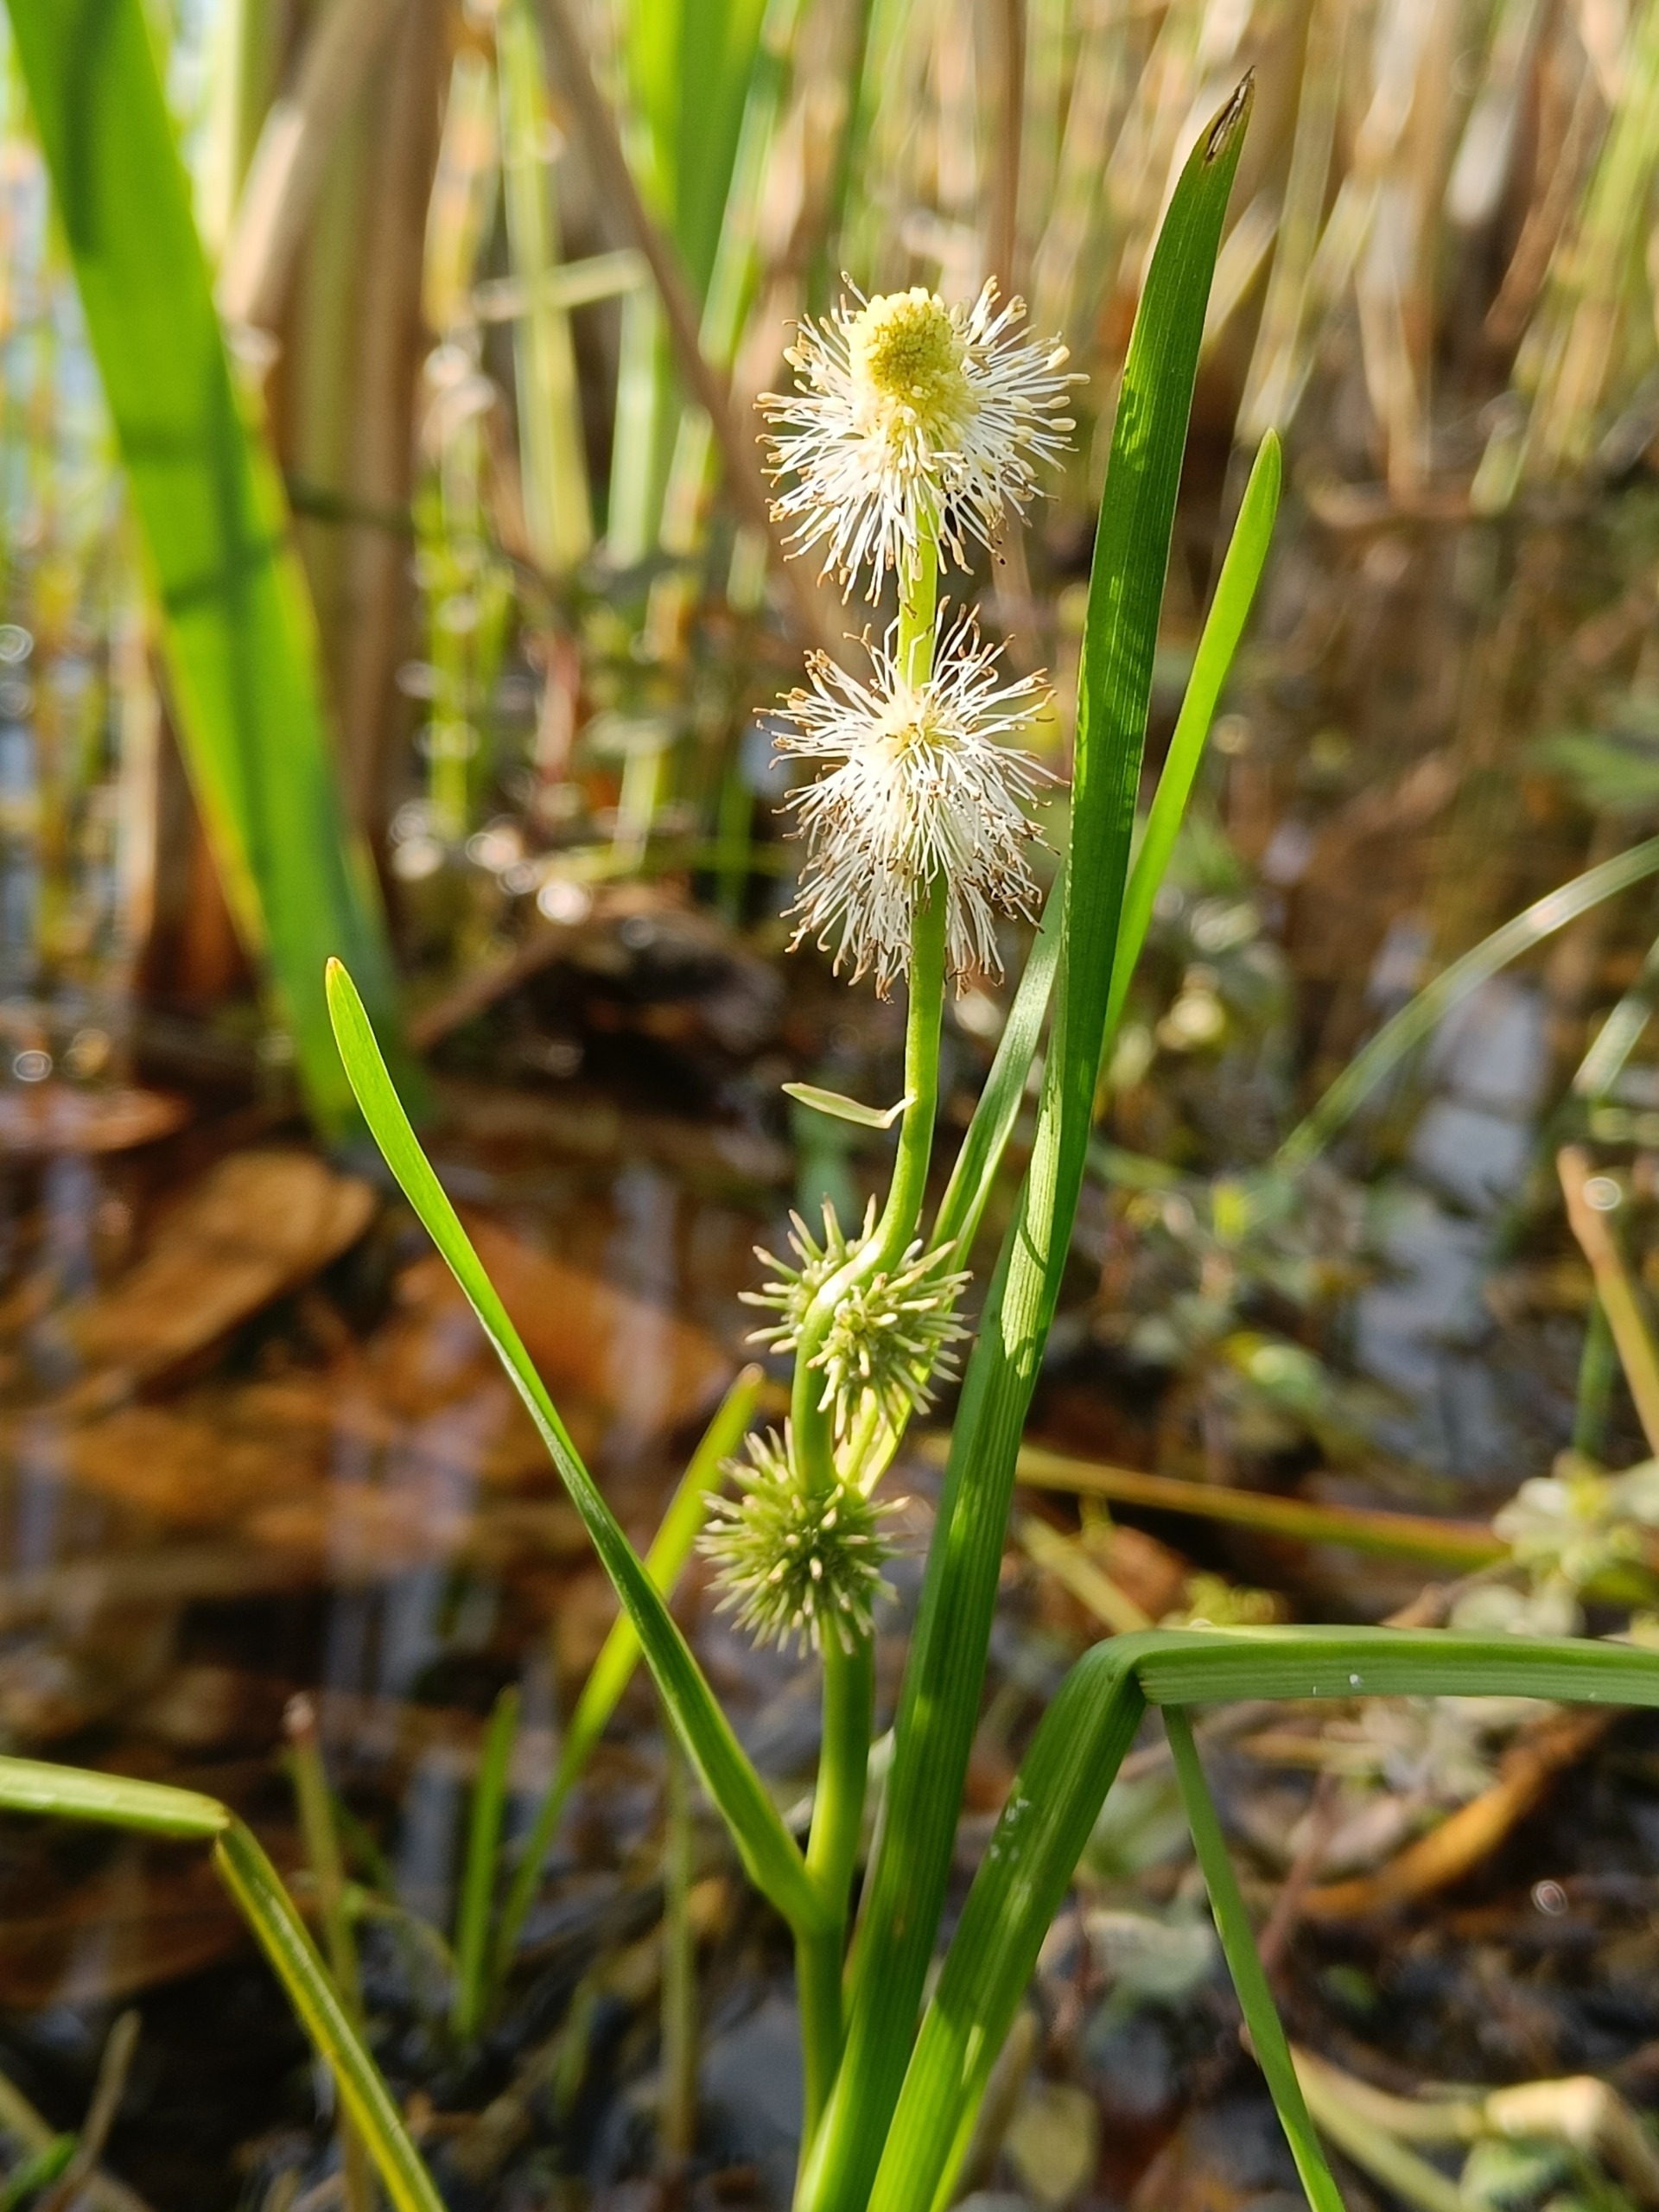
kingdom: Plantae
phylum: Tracheophyta
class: Liliopsida
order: Poales
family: Typhaceae
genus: Sparganium
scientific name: Sparganium emersum
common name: Enkelt pindsvineknop
